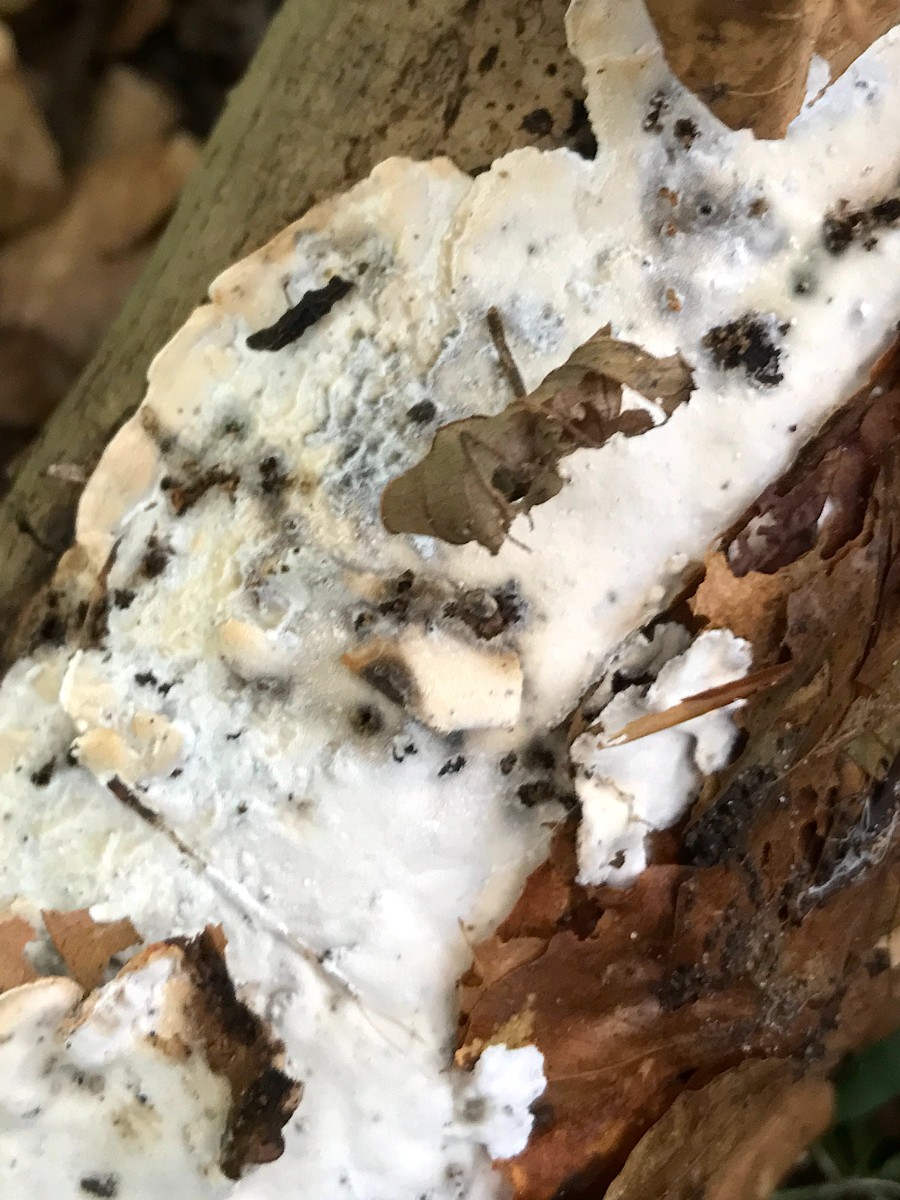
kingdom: Fungi
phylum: Basidiomycota
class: Agaricomycetes
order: Polyporales
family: Incrustoporiaceae
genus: Skeletocutis
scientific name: Skeletocutis nemoralis
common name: stor krystalporesvamp
